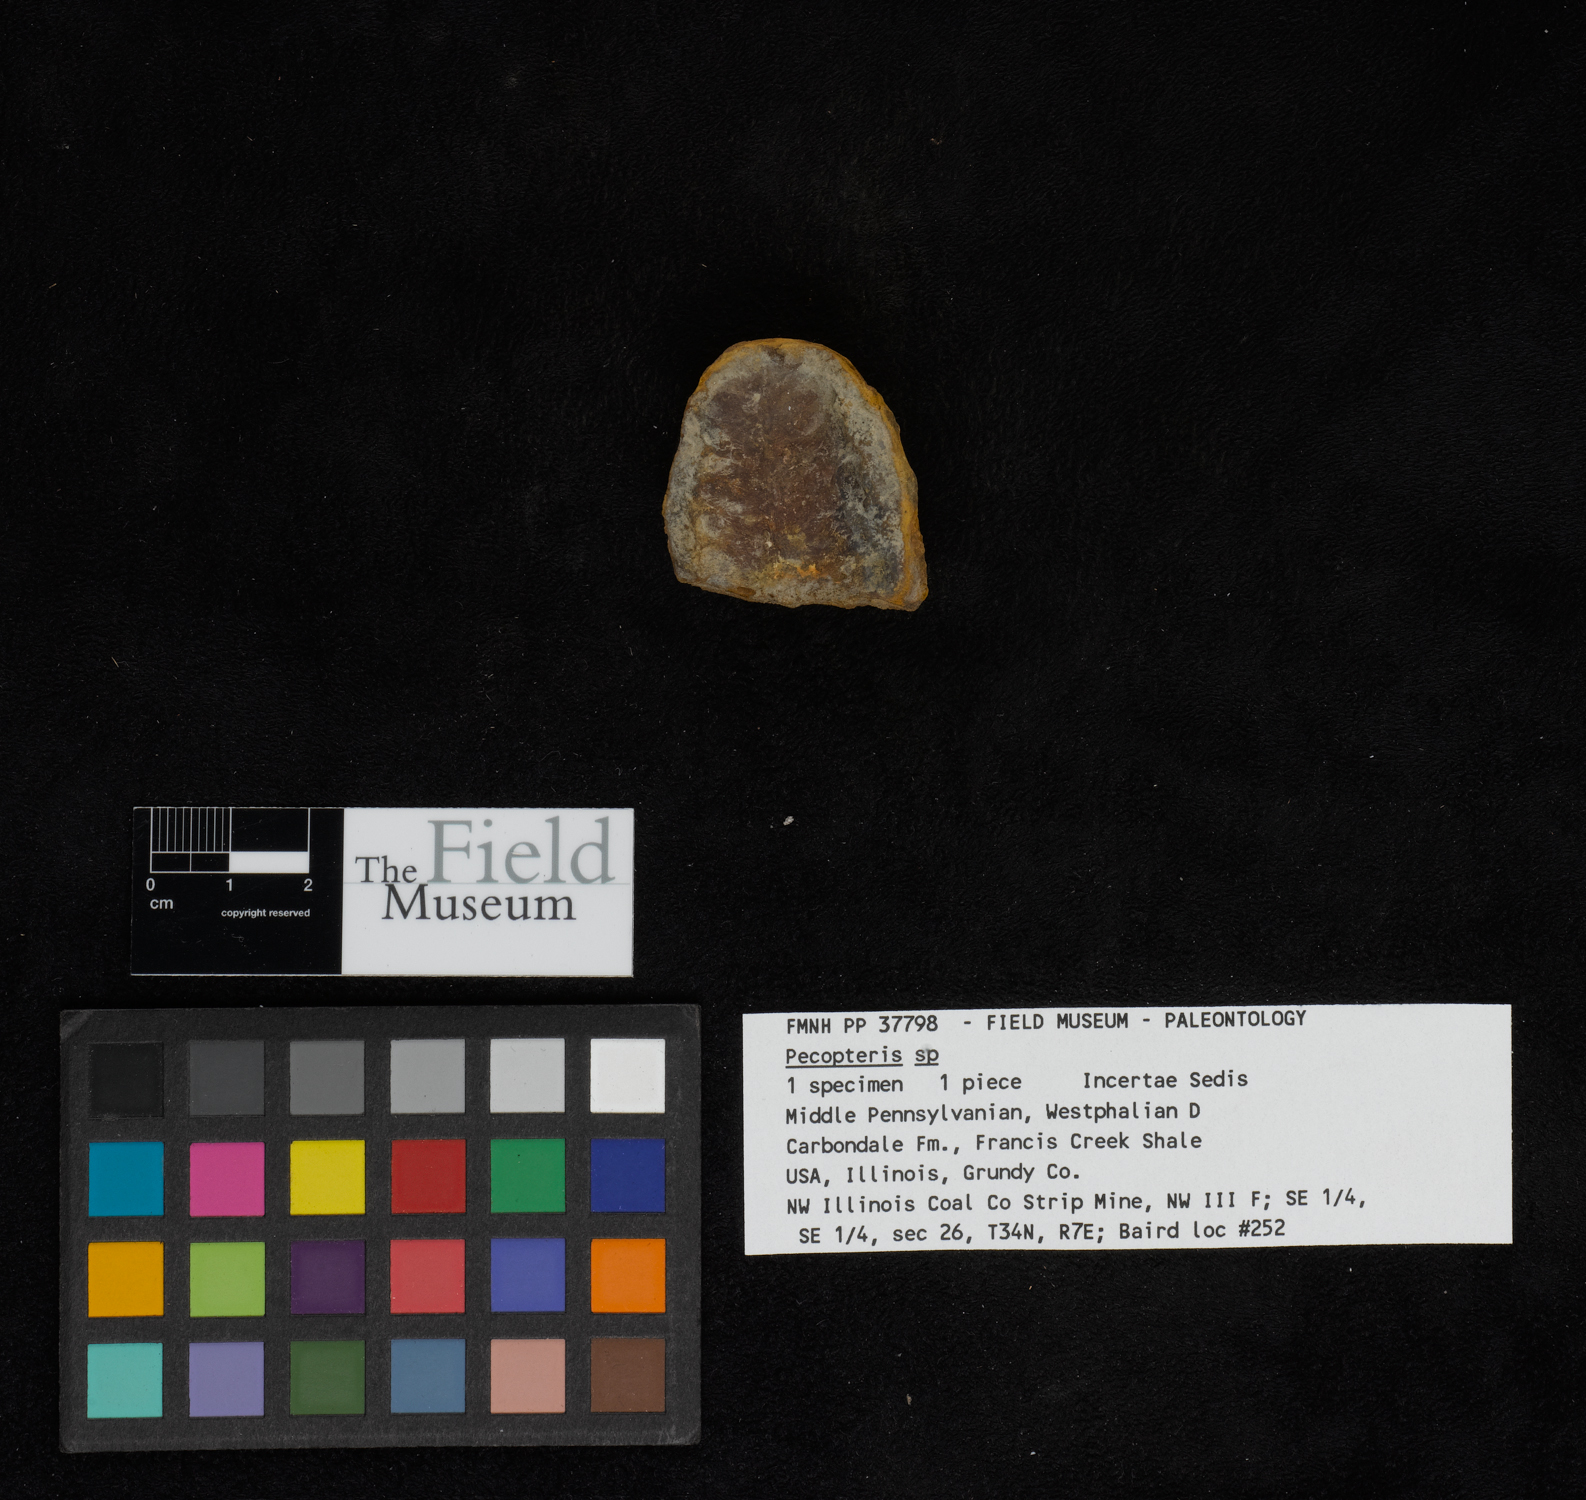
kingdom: Plantae
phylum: Tracheophyta
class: Polypodiopsida
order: Marattiales
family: Asterothecaceae
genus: Pecopteris
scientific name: Pecopteris
